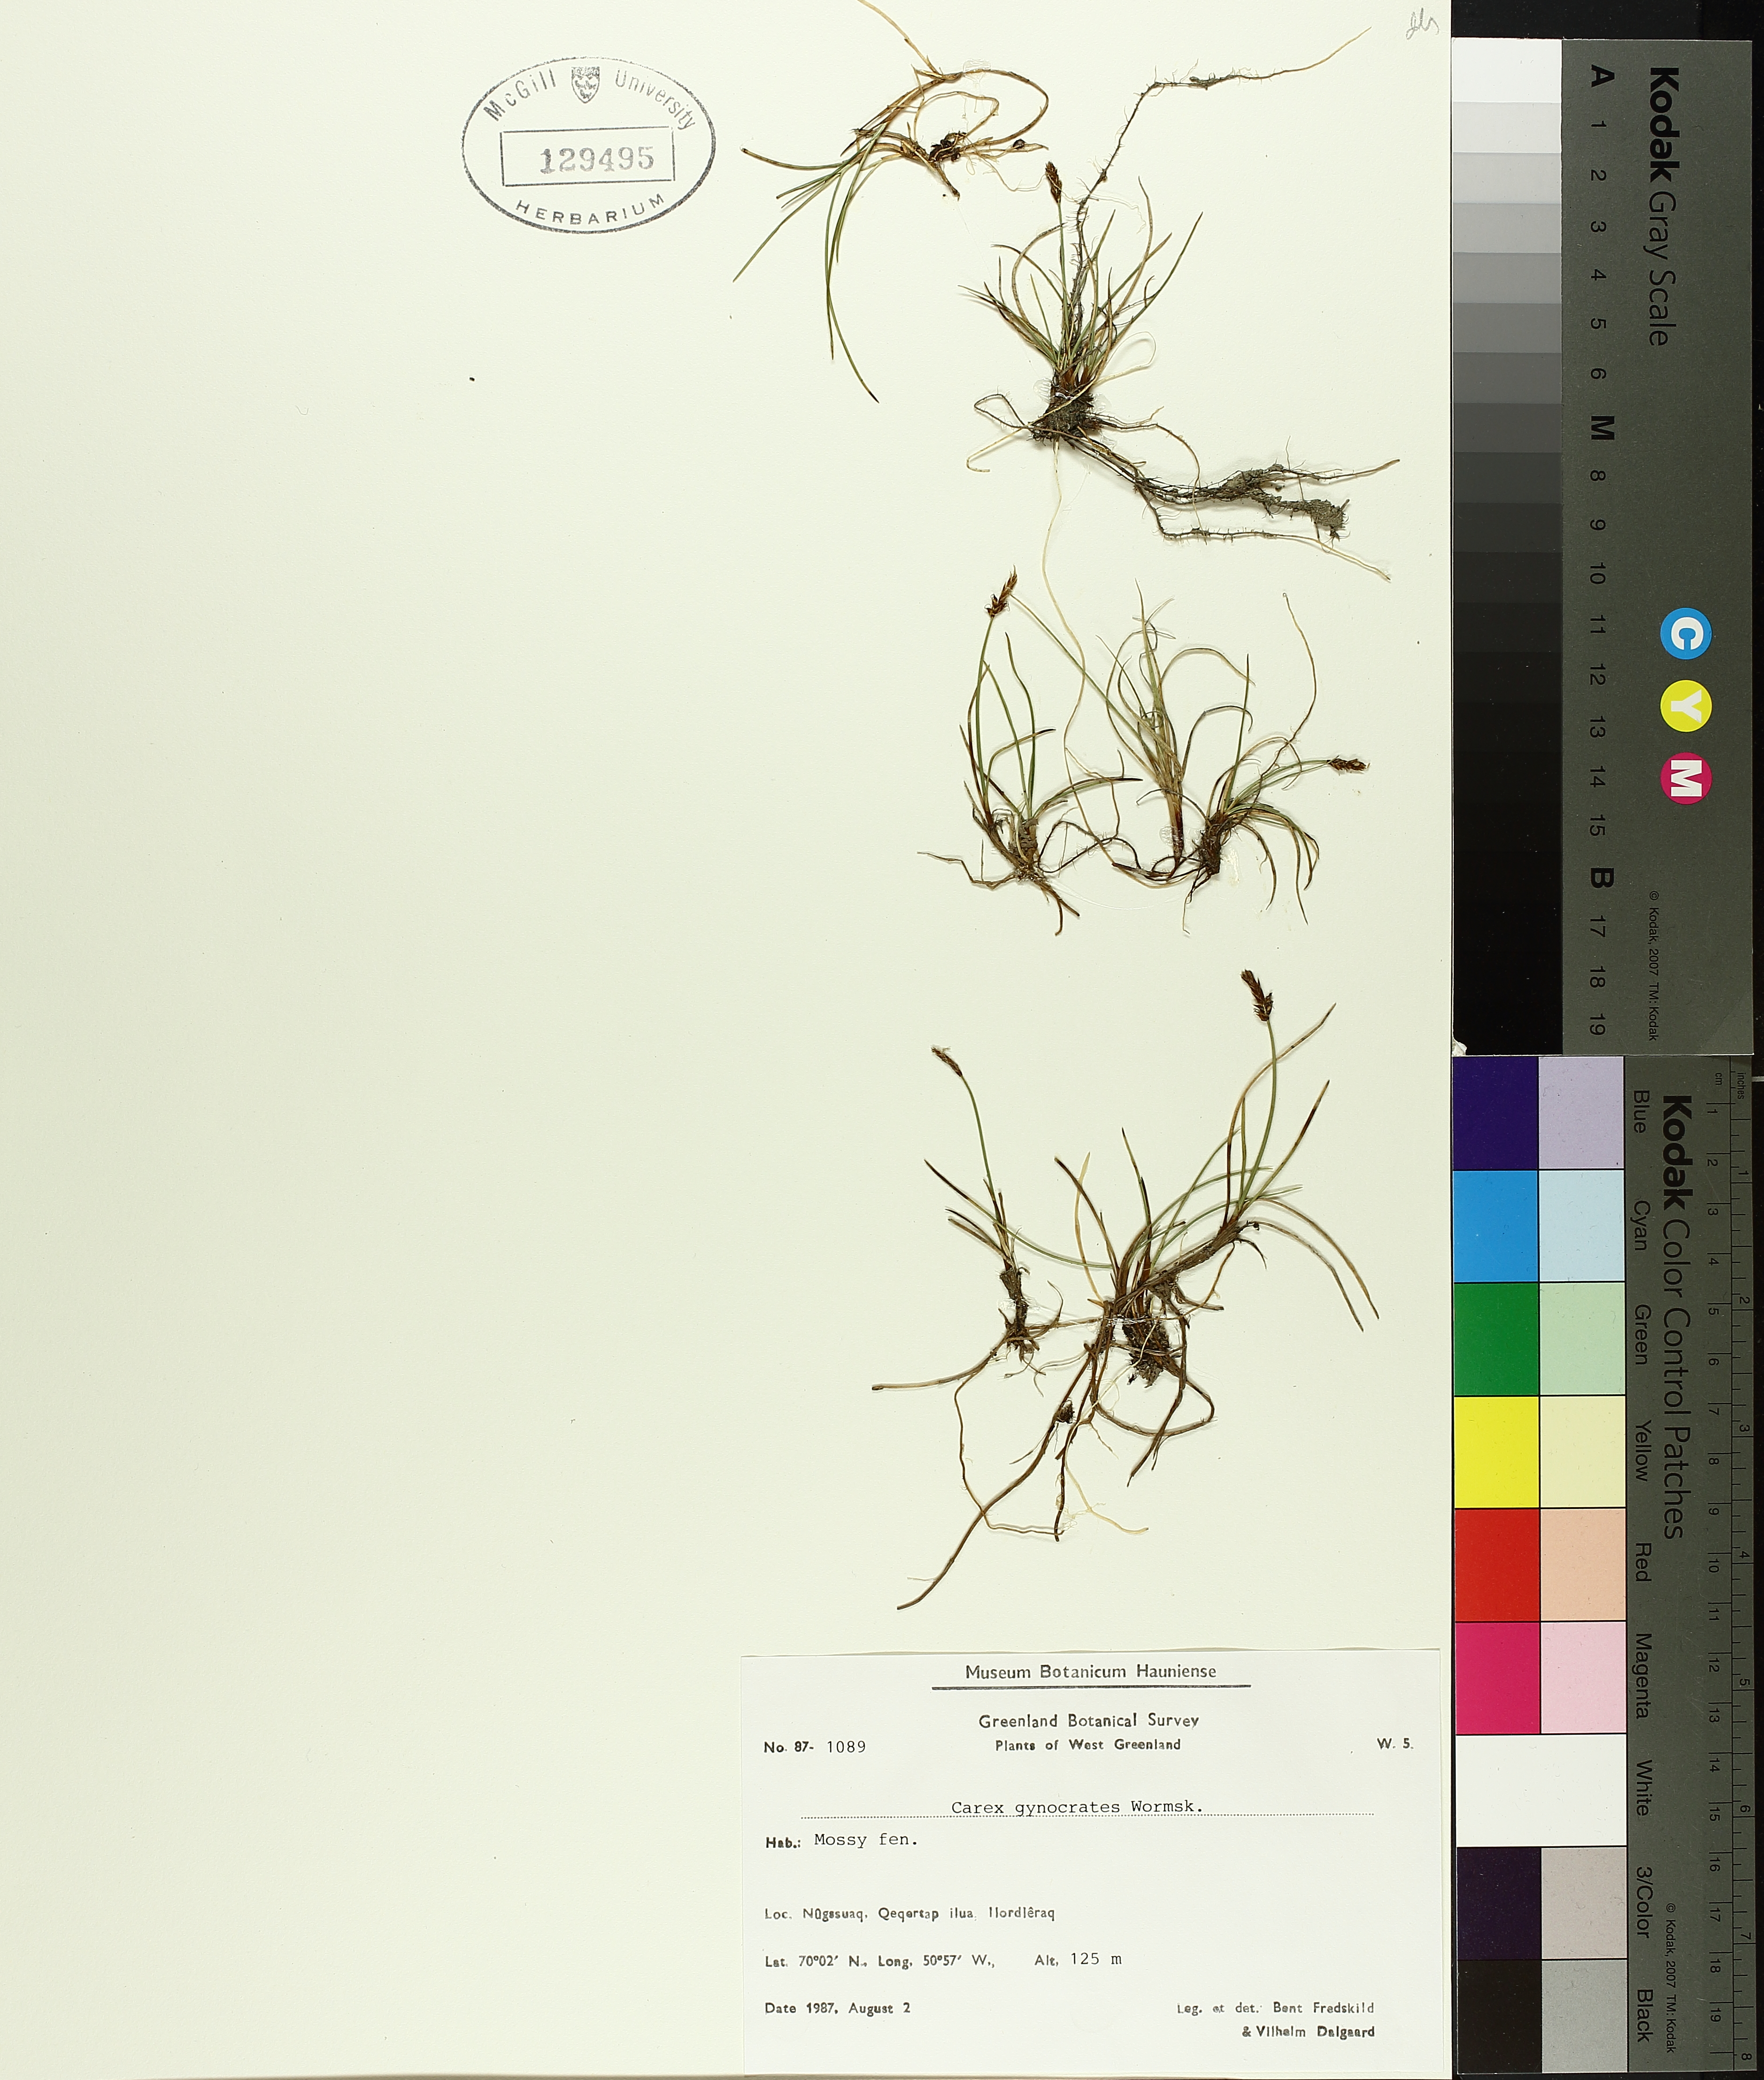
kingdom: Plantae
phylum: Tracheophyta
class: Liliopsida
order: Poales
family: Cyperaceae
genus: Carex
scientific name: Carex gynocrates
